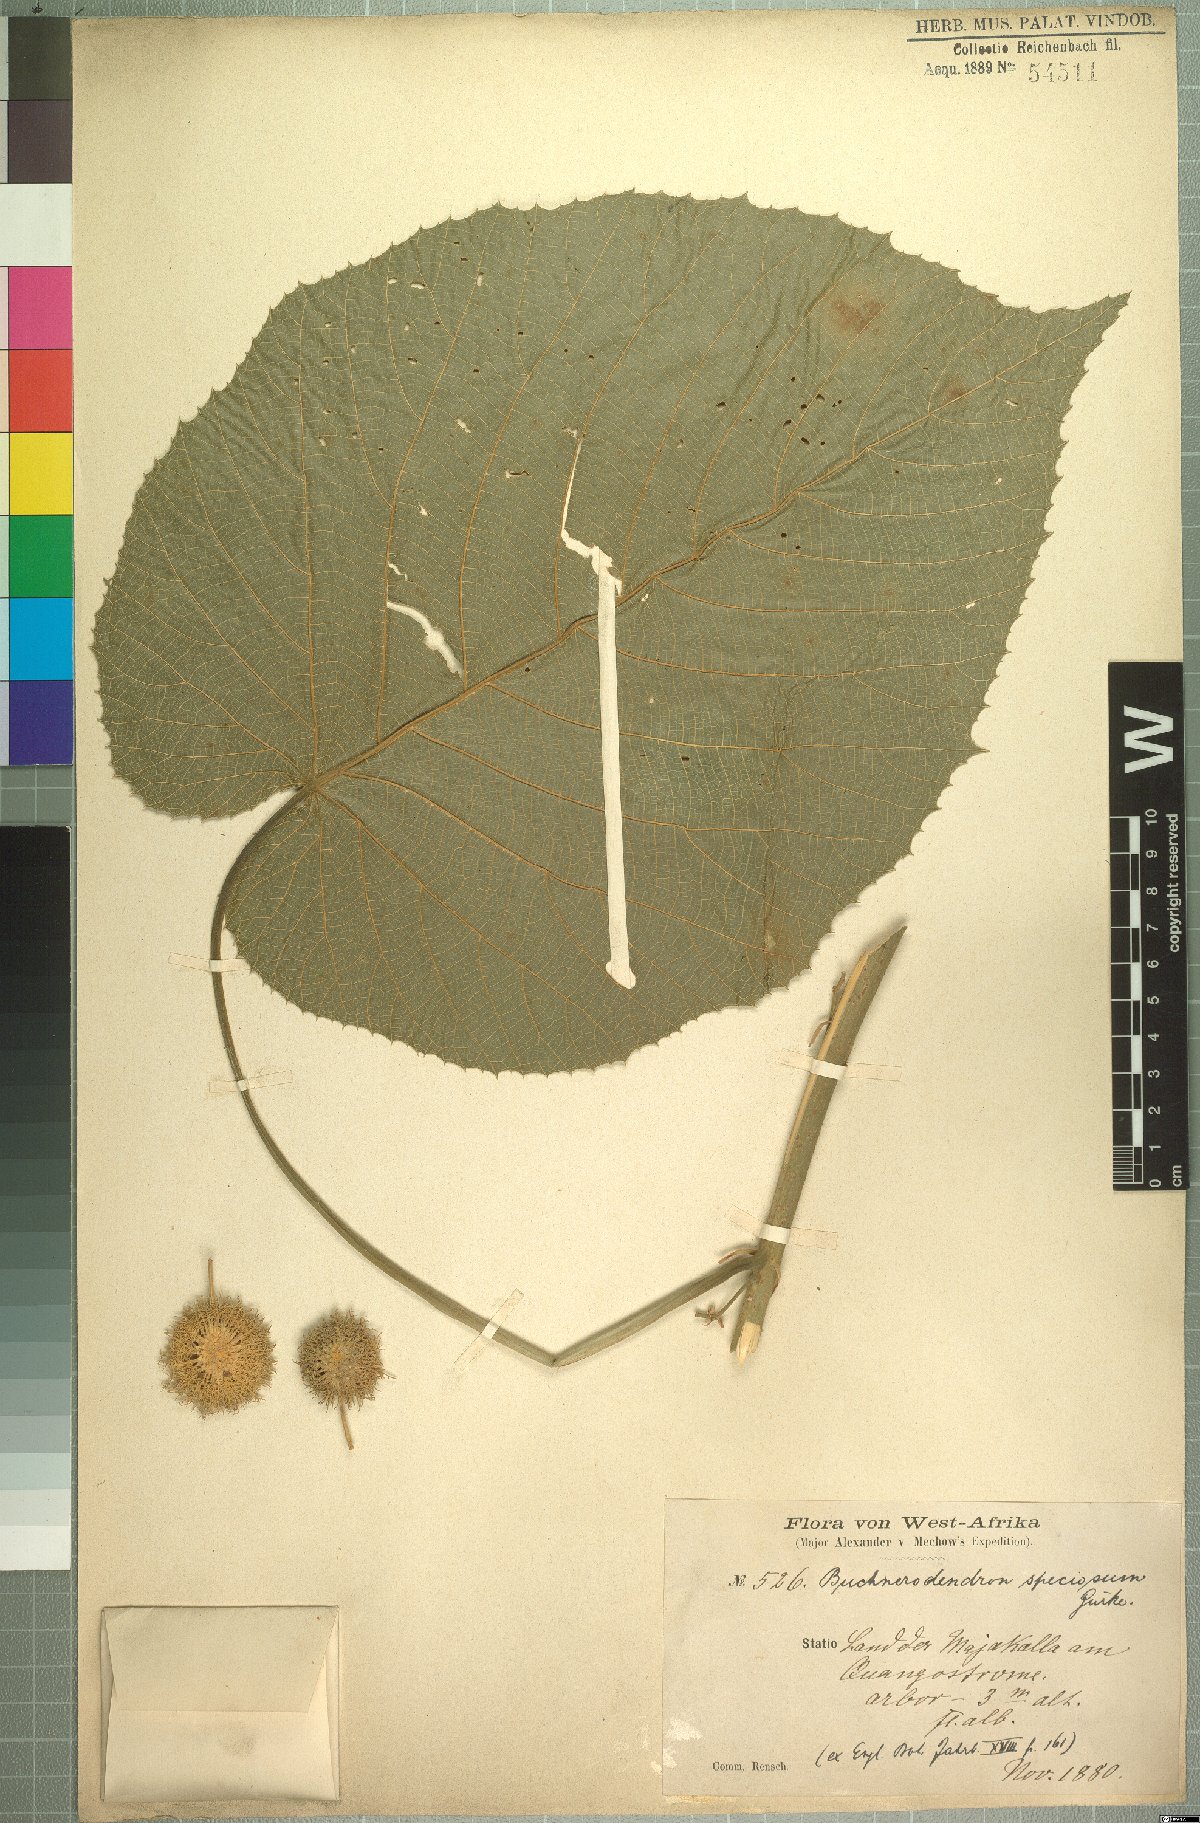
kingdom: Plantae
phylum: Tracheophyta
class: Magnoliopsida
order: Malpighiales
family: Achariaceae
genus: Buchnerodendron
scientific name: Buchnerodendron speciosum
